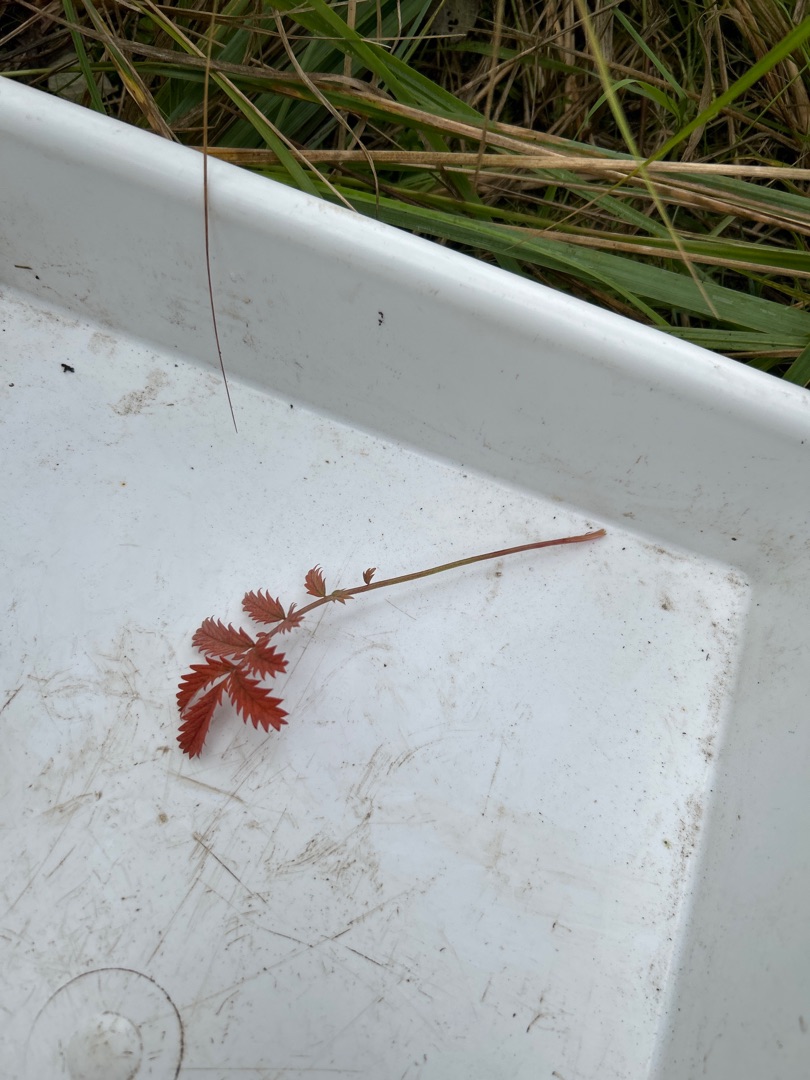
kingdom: Plantae
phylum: Tracheophyta
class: Magnoliopsida
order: Rosales
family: Rosaceae
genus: Argentina
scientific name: Argentina anserina
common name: Gåsepotentil
